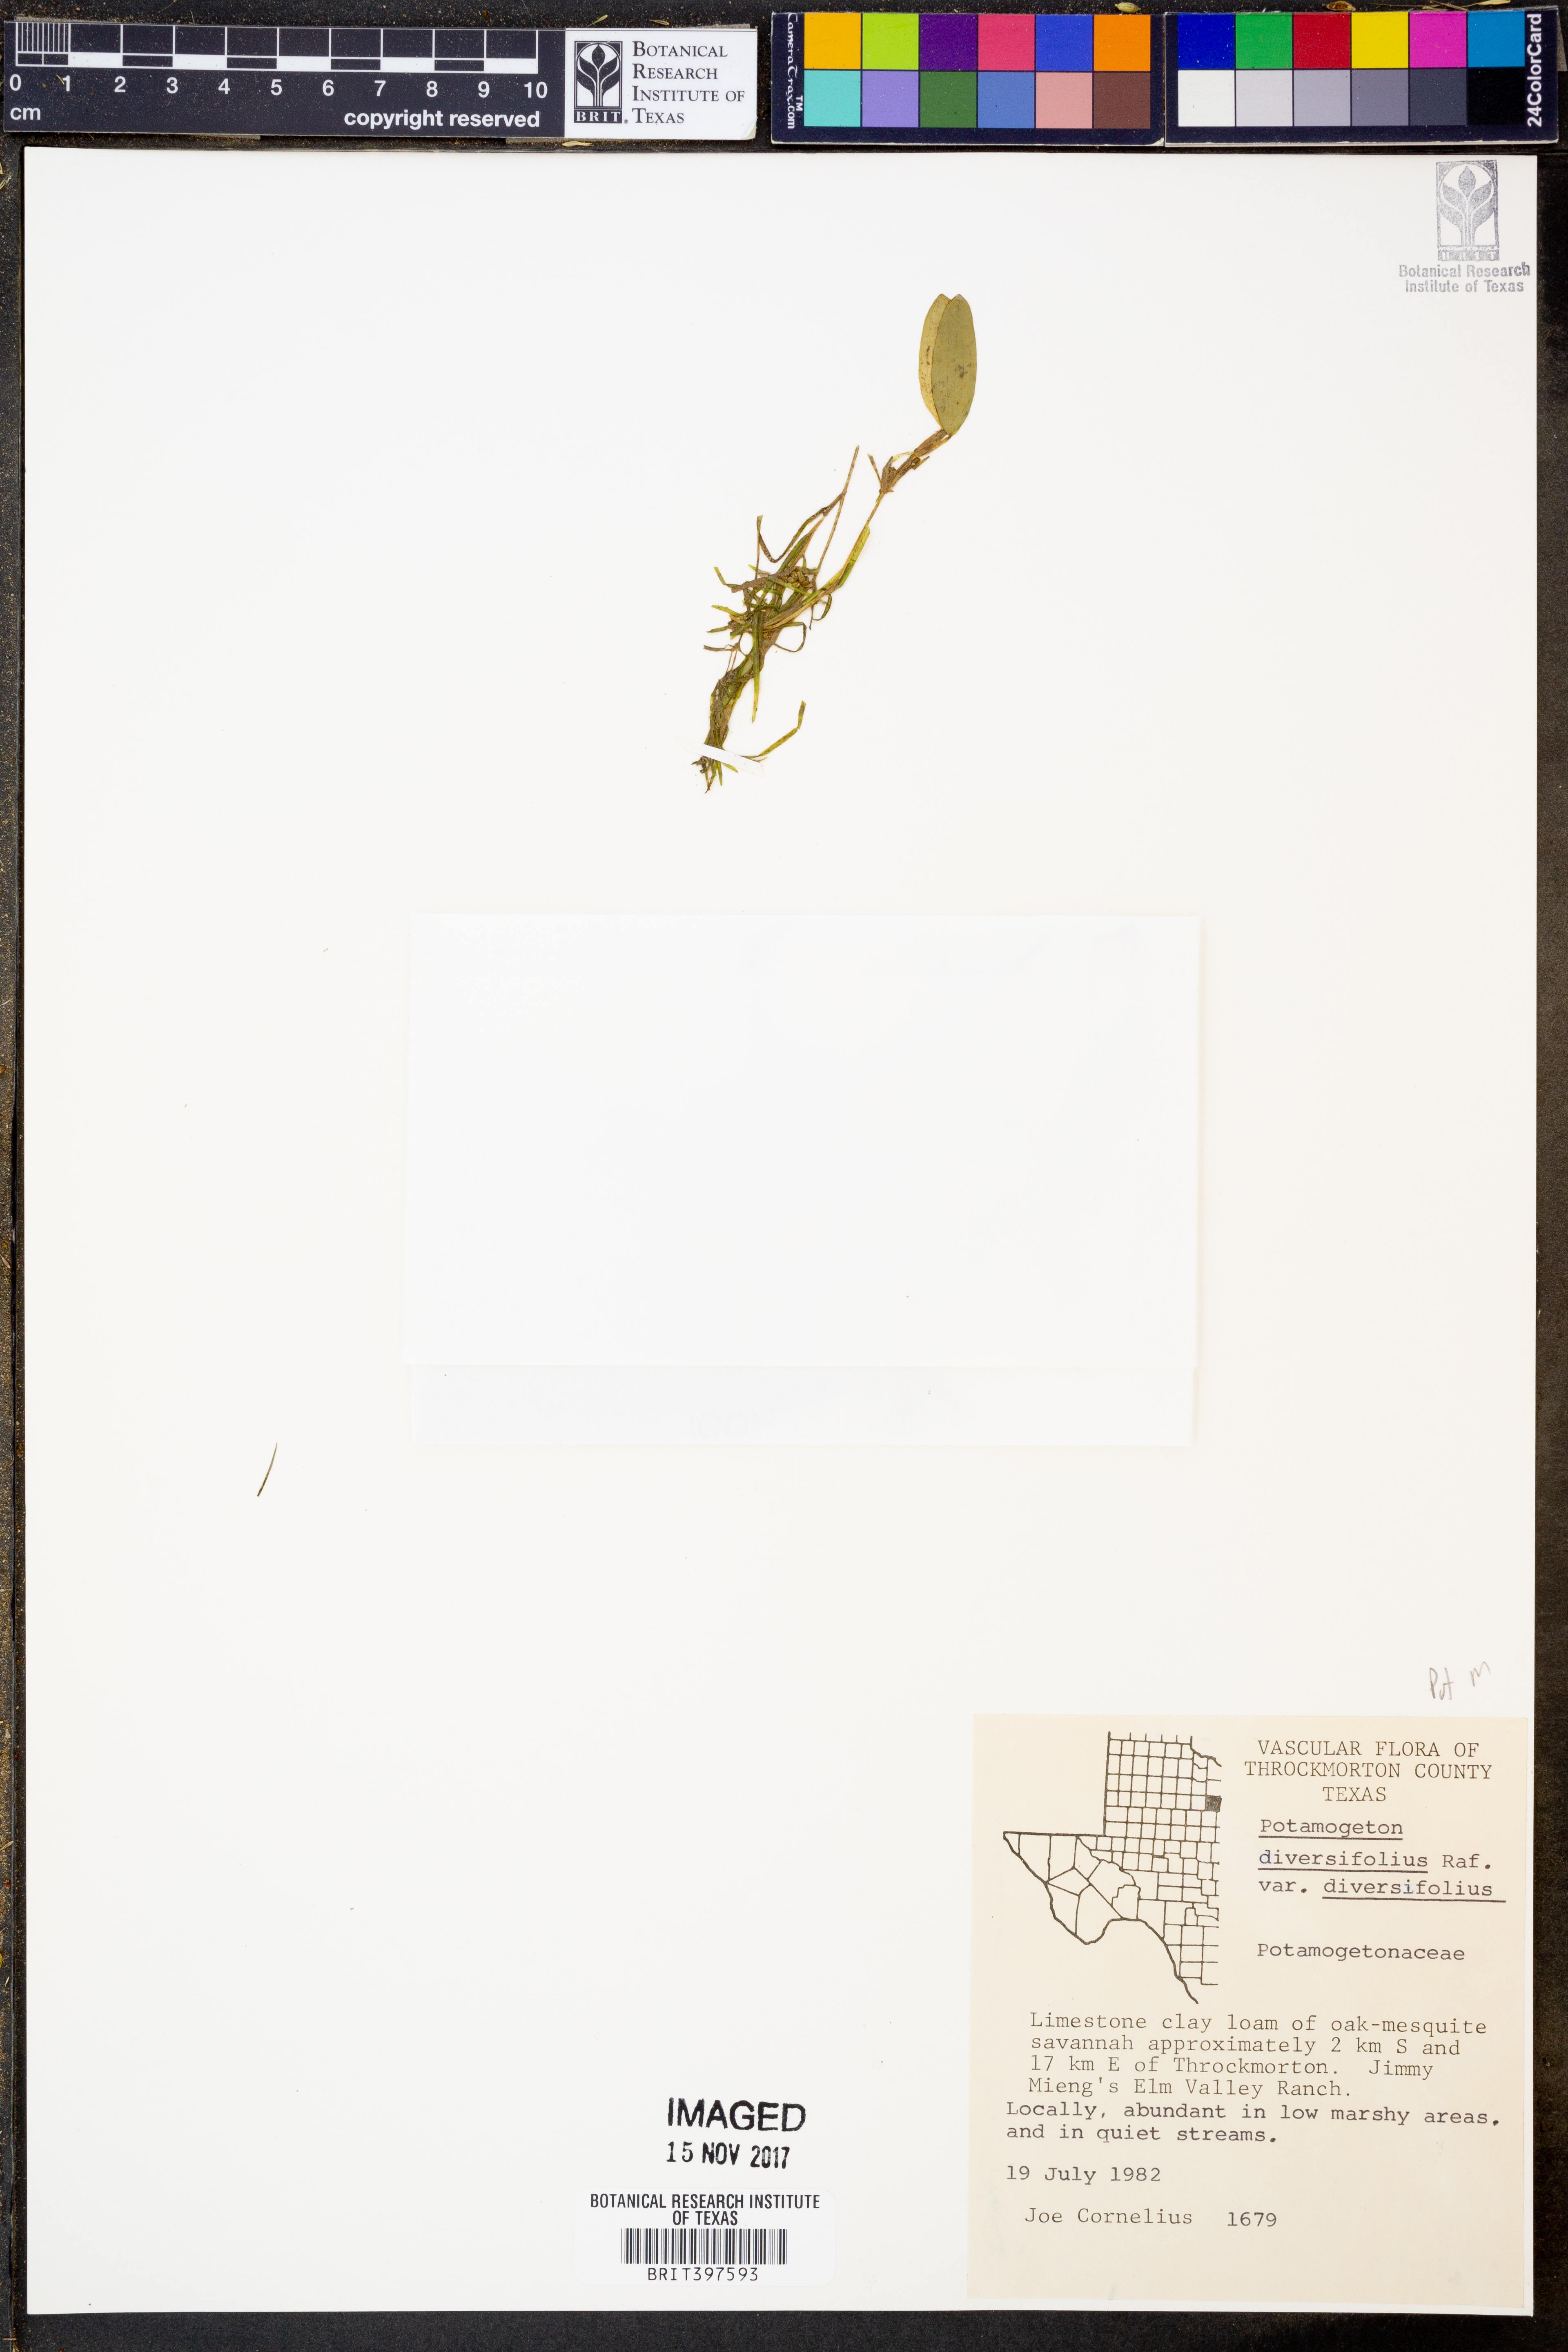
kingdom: Plantae
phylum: Tracheophyta
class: Liliopsida
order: Alismatales
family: Potamogetonaceae
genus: Potamogeton
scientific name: Potamogeton diversifolius
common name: Water-thread pondweed
